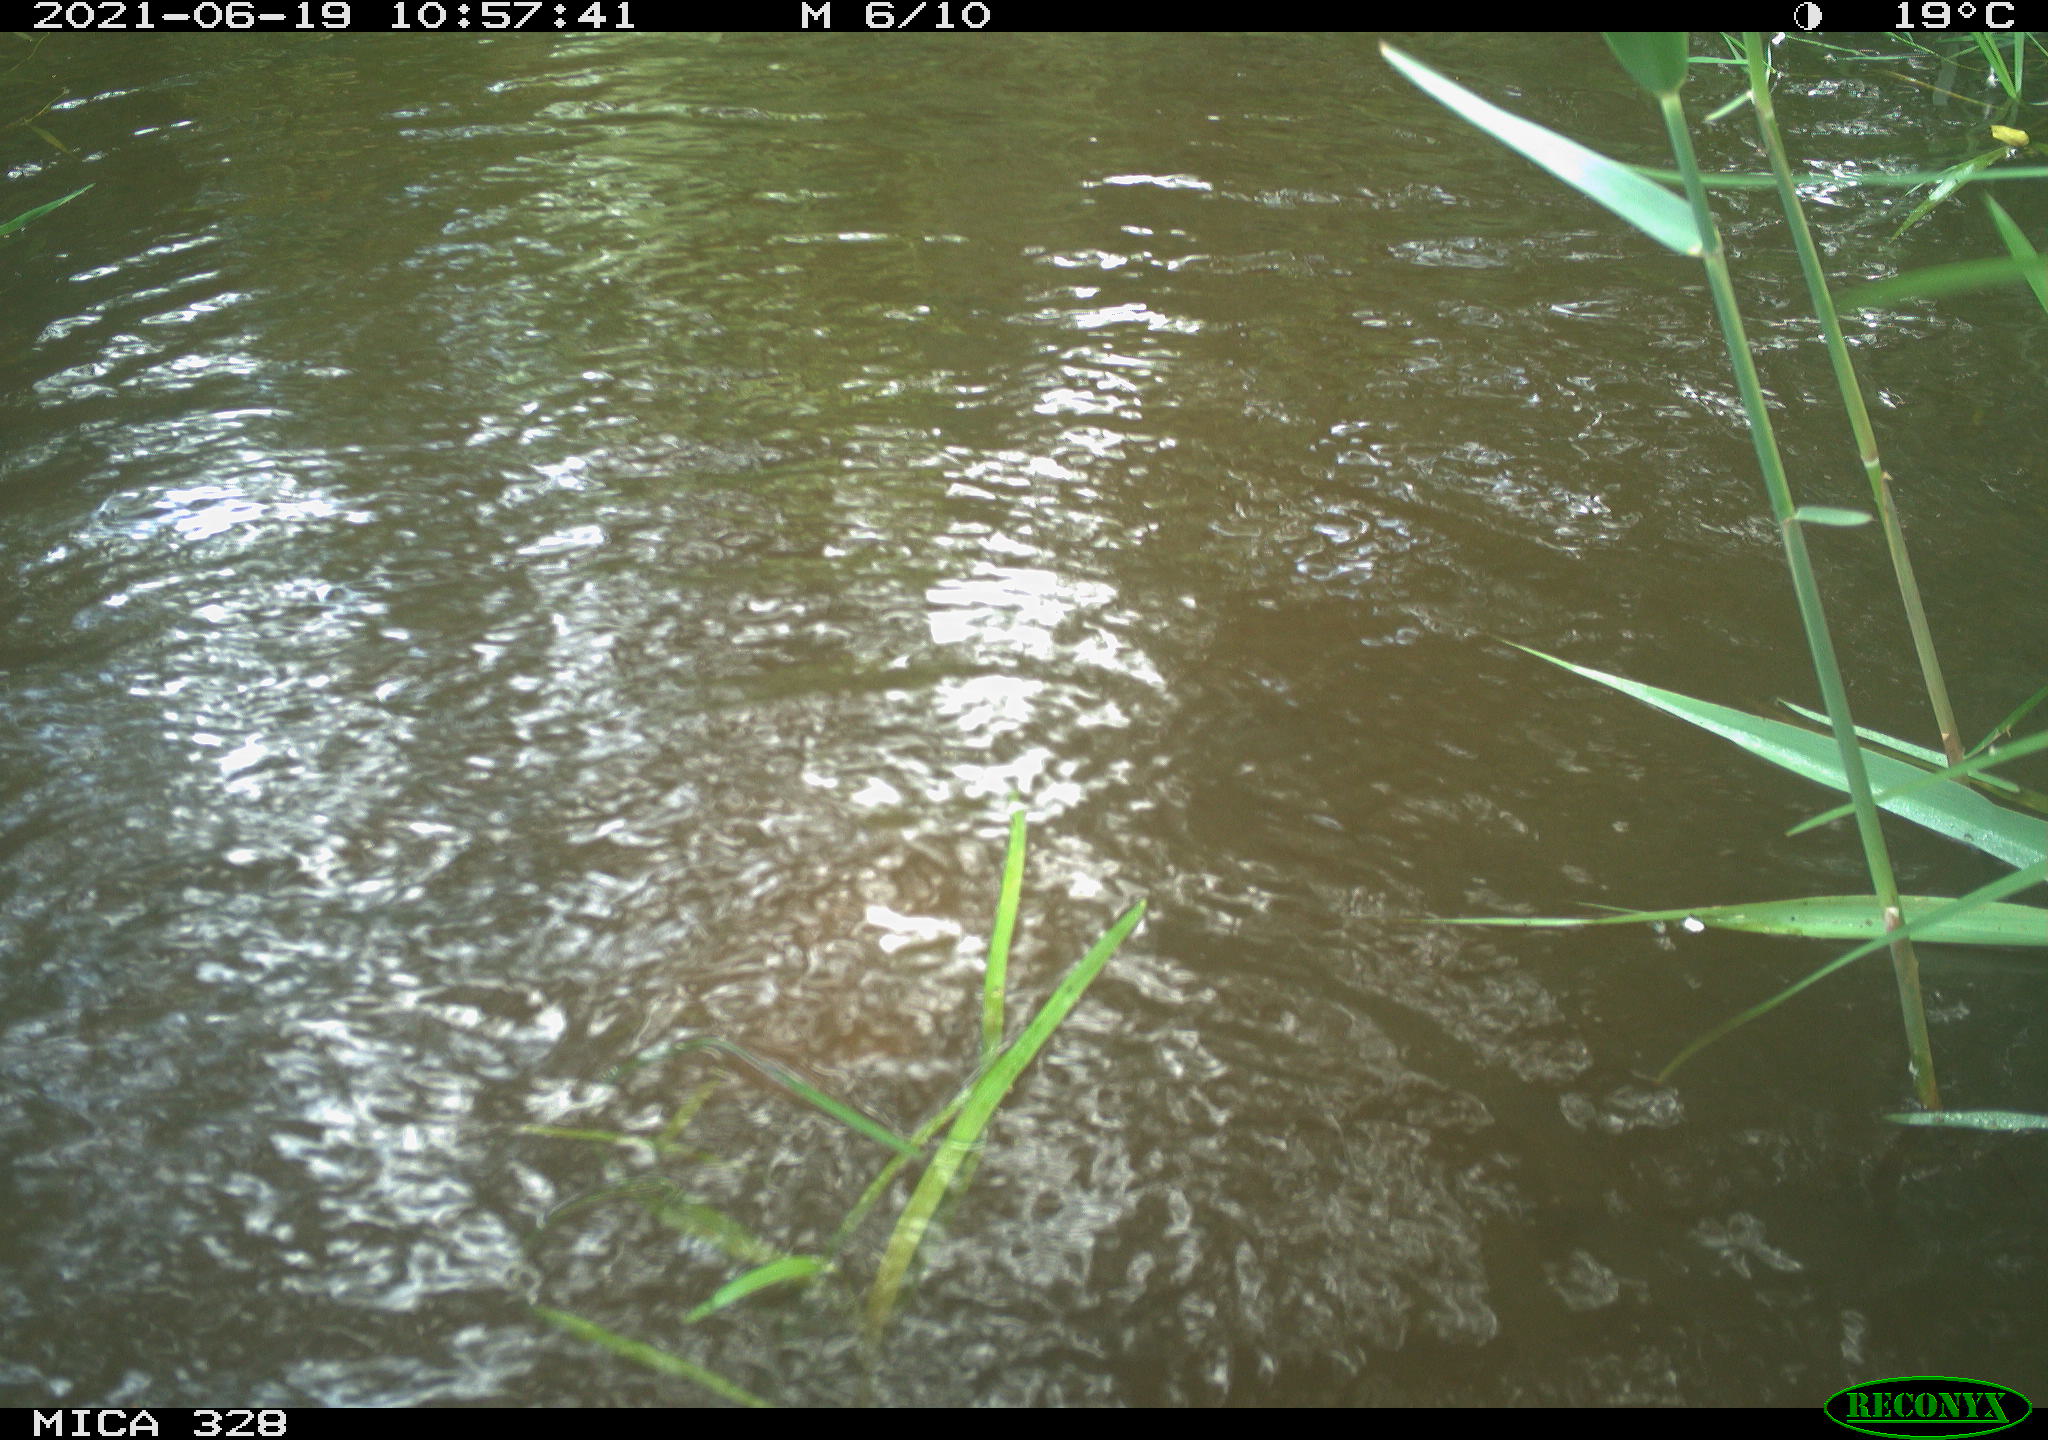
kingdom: Animalia
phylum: Chordata
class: Mammalia
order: Rodentia
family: Cricetidae
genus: Ondatra
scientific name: Ondatra zibethicus
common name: Muskrat
